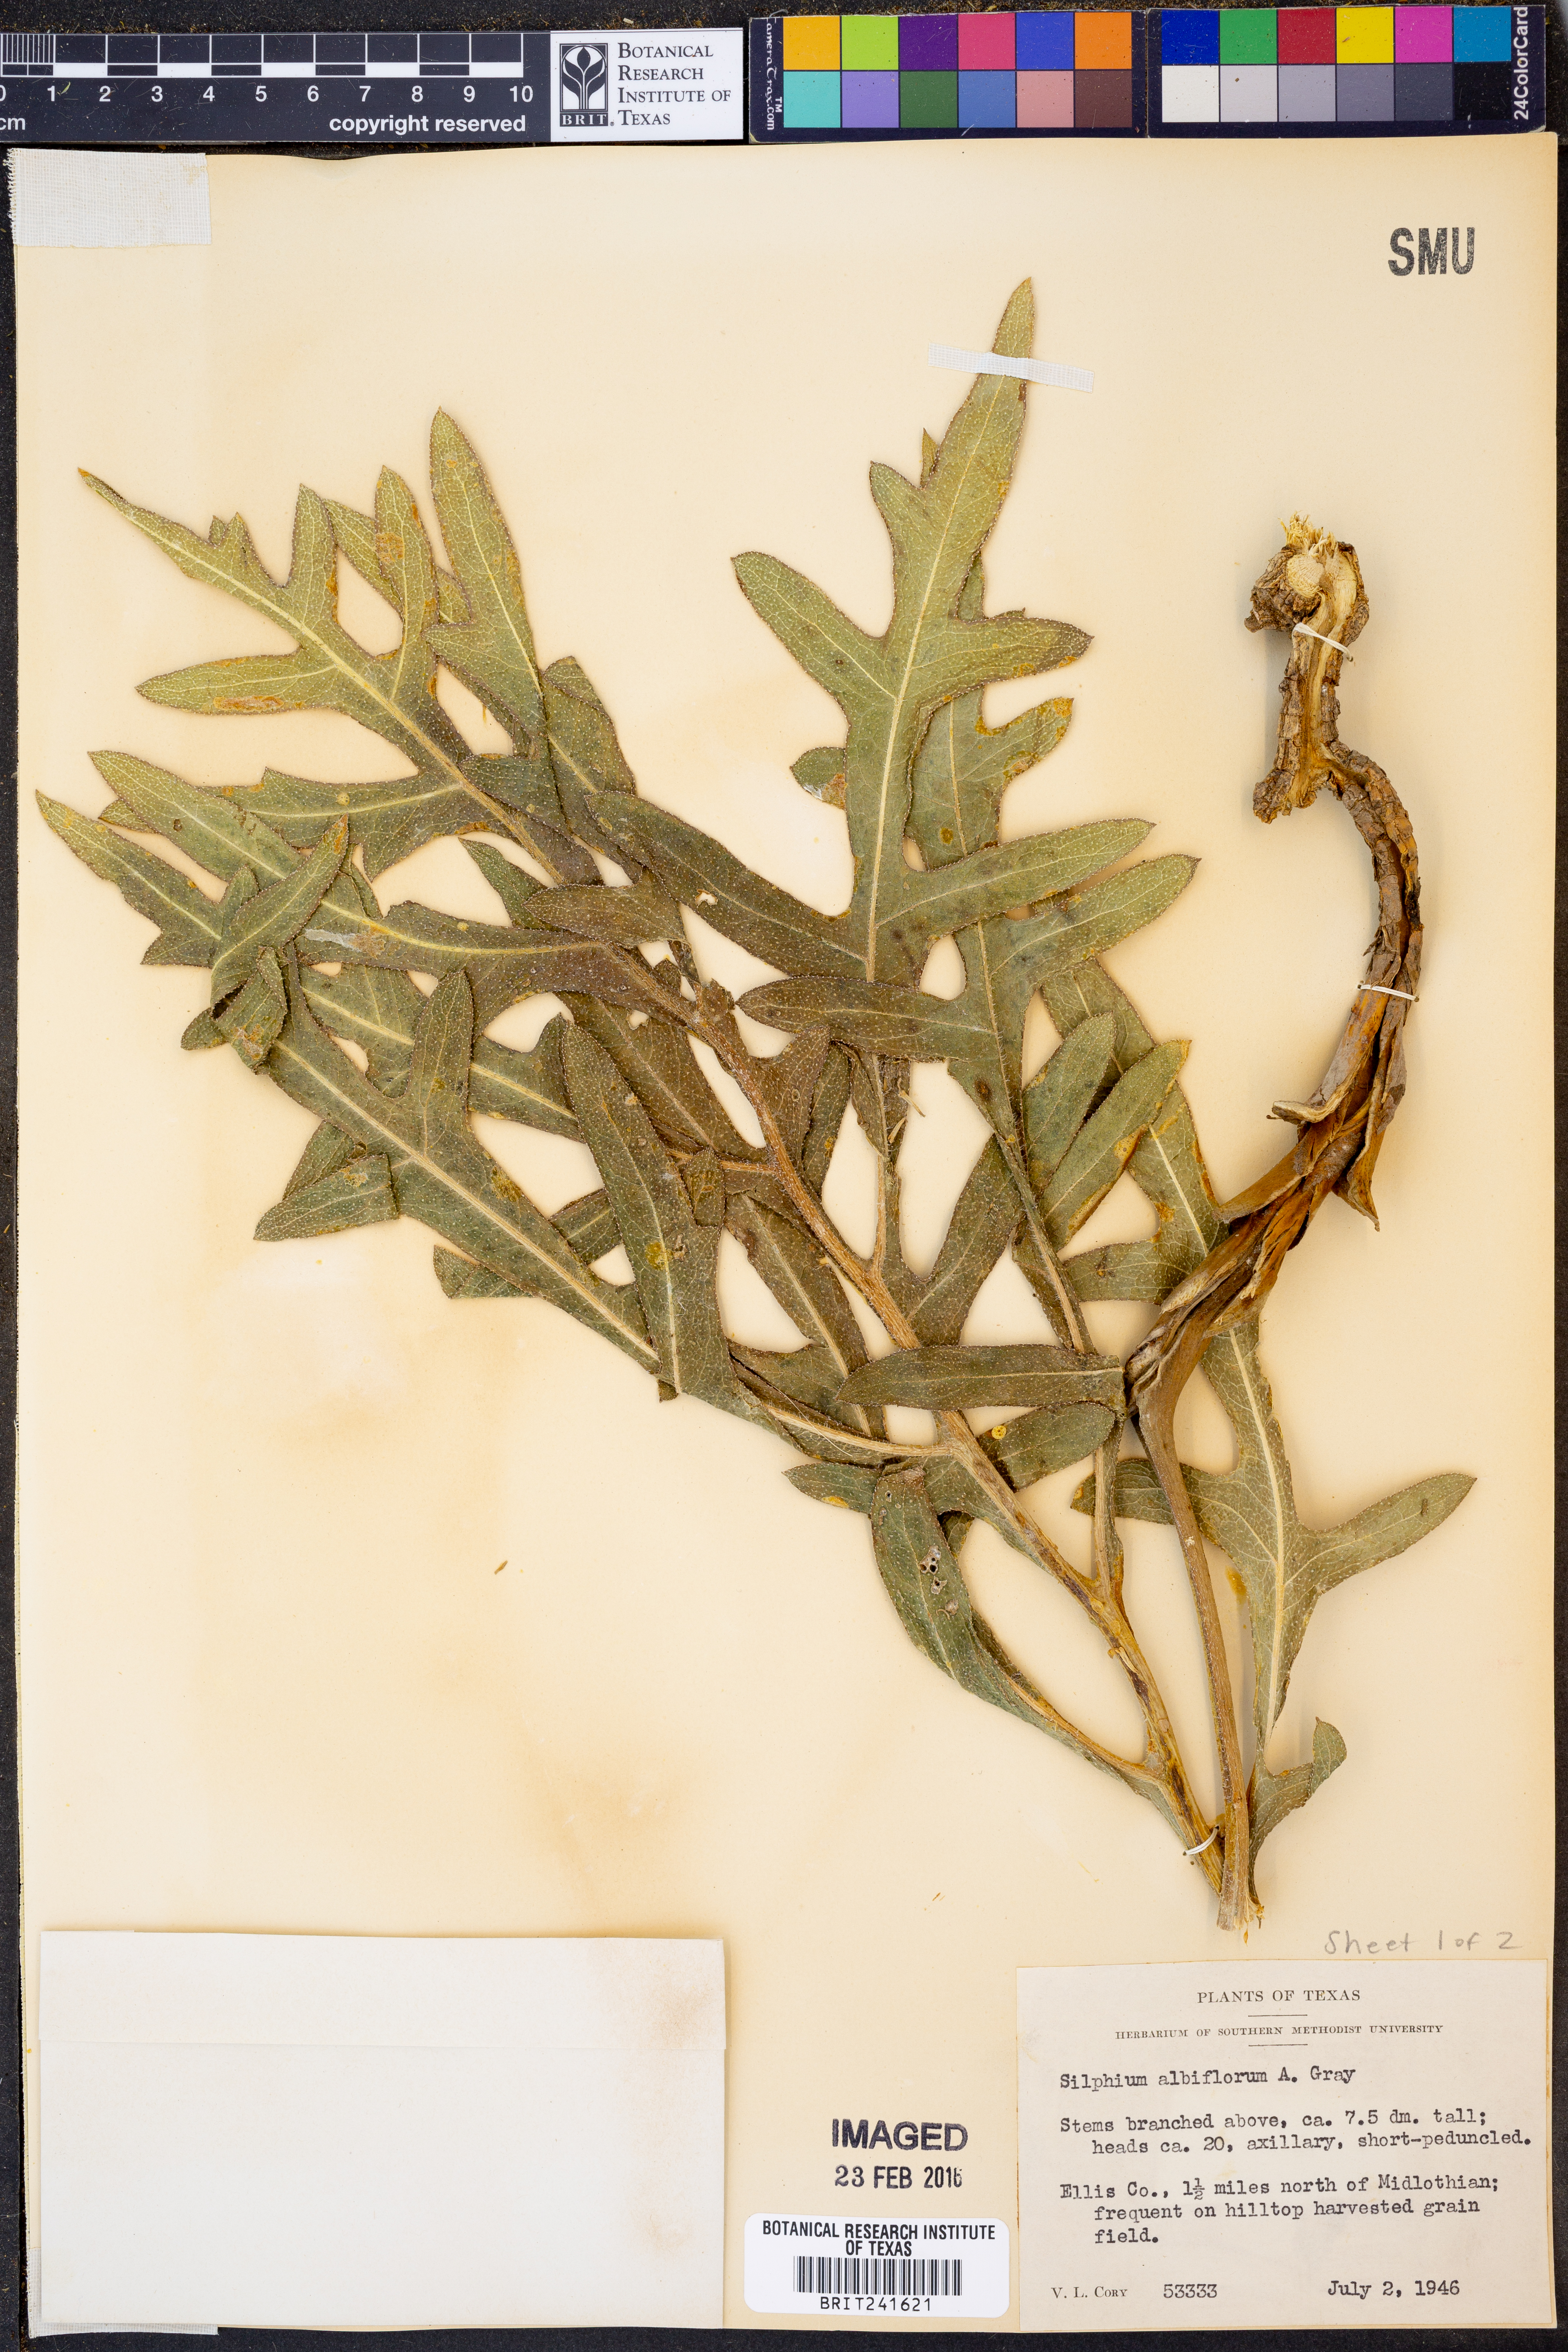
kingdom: Plantae
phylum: Tracheophyta
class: Magnoliopsida
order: Asterales
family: Asteraceae
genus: Silphium
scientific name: Silphium albiflorum
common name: White rosinweed
